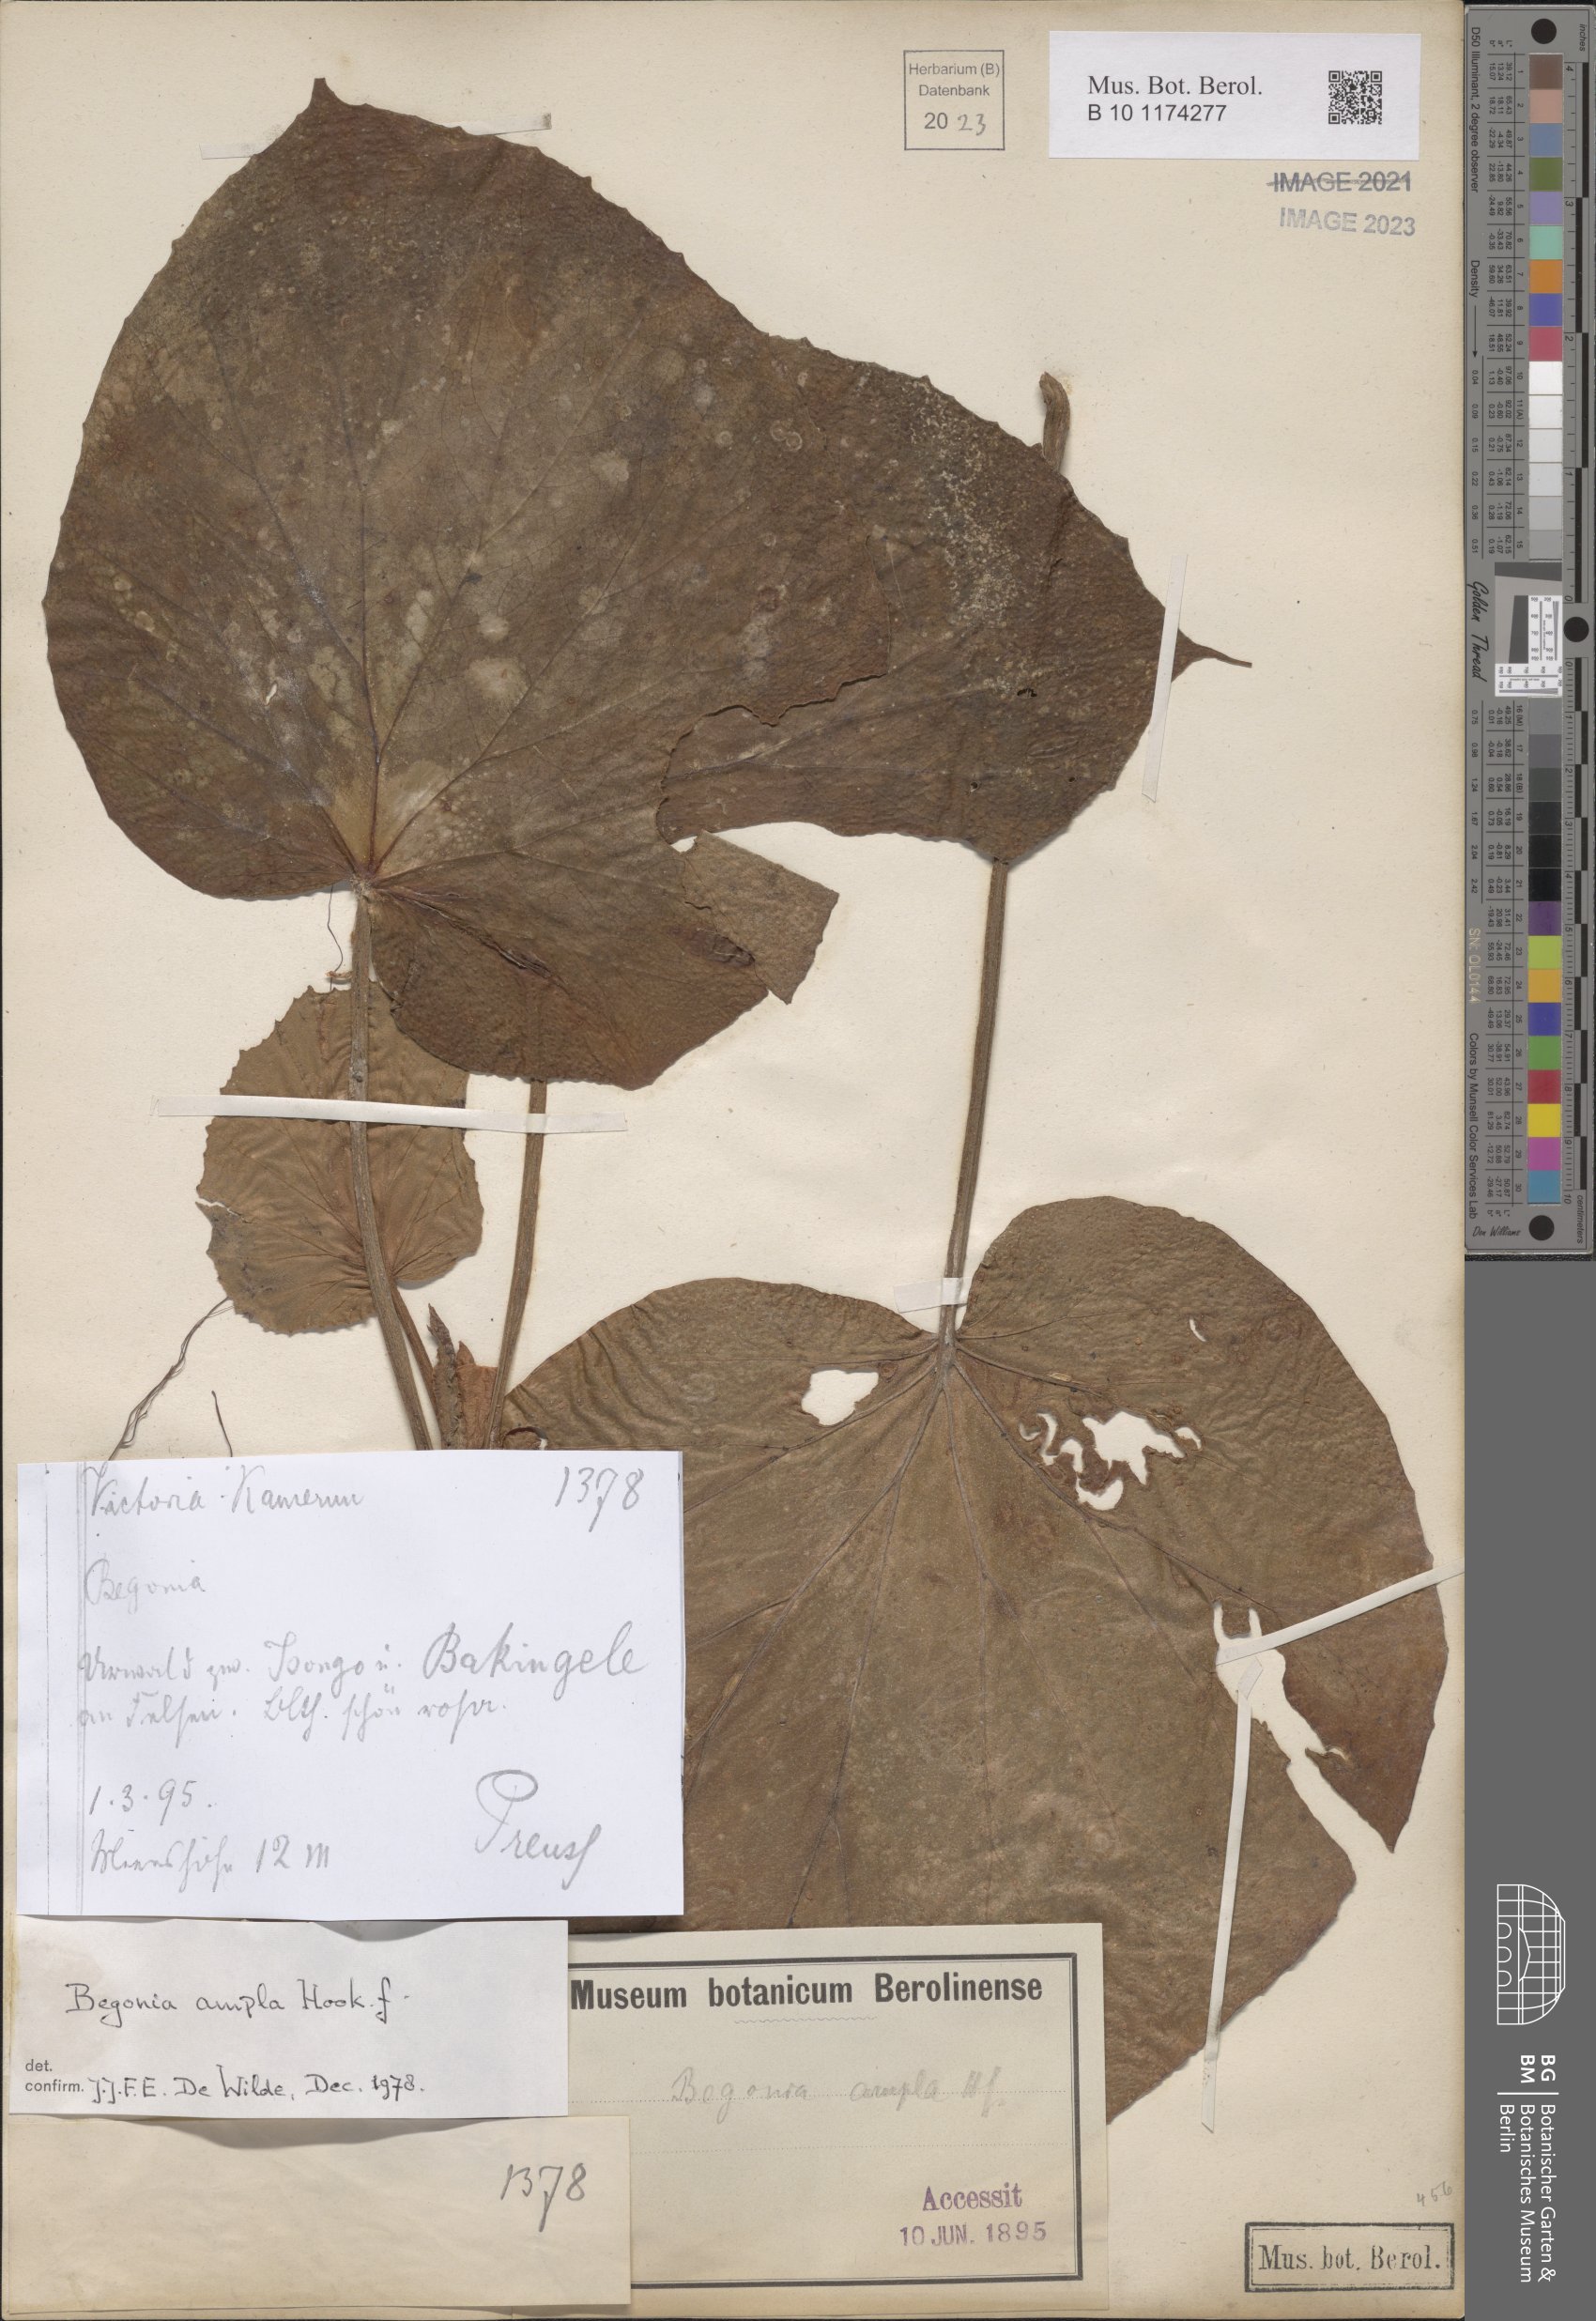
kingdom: Plantae
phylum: Tracheophyta
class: Magnoliopsida
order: Cucurbitales
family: Begoniaceae
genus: Begonia
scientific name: Begonia ampla
